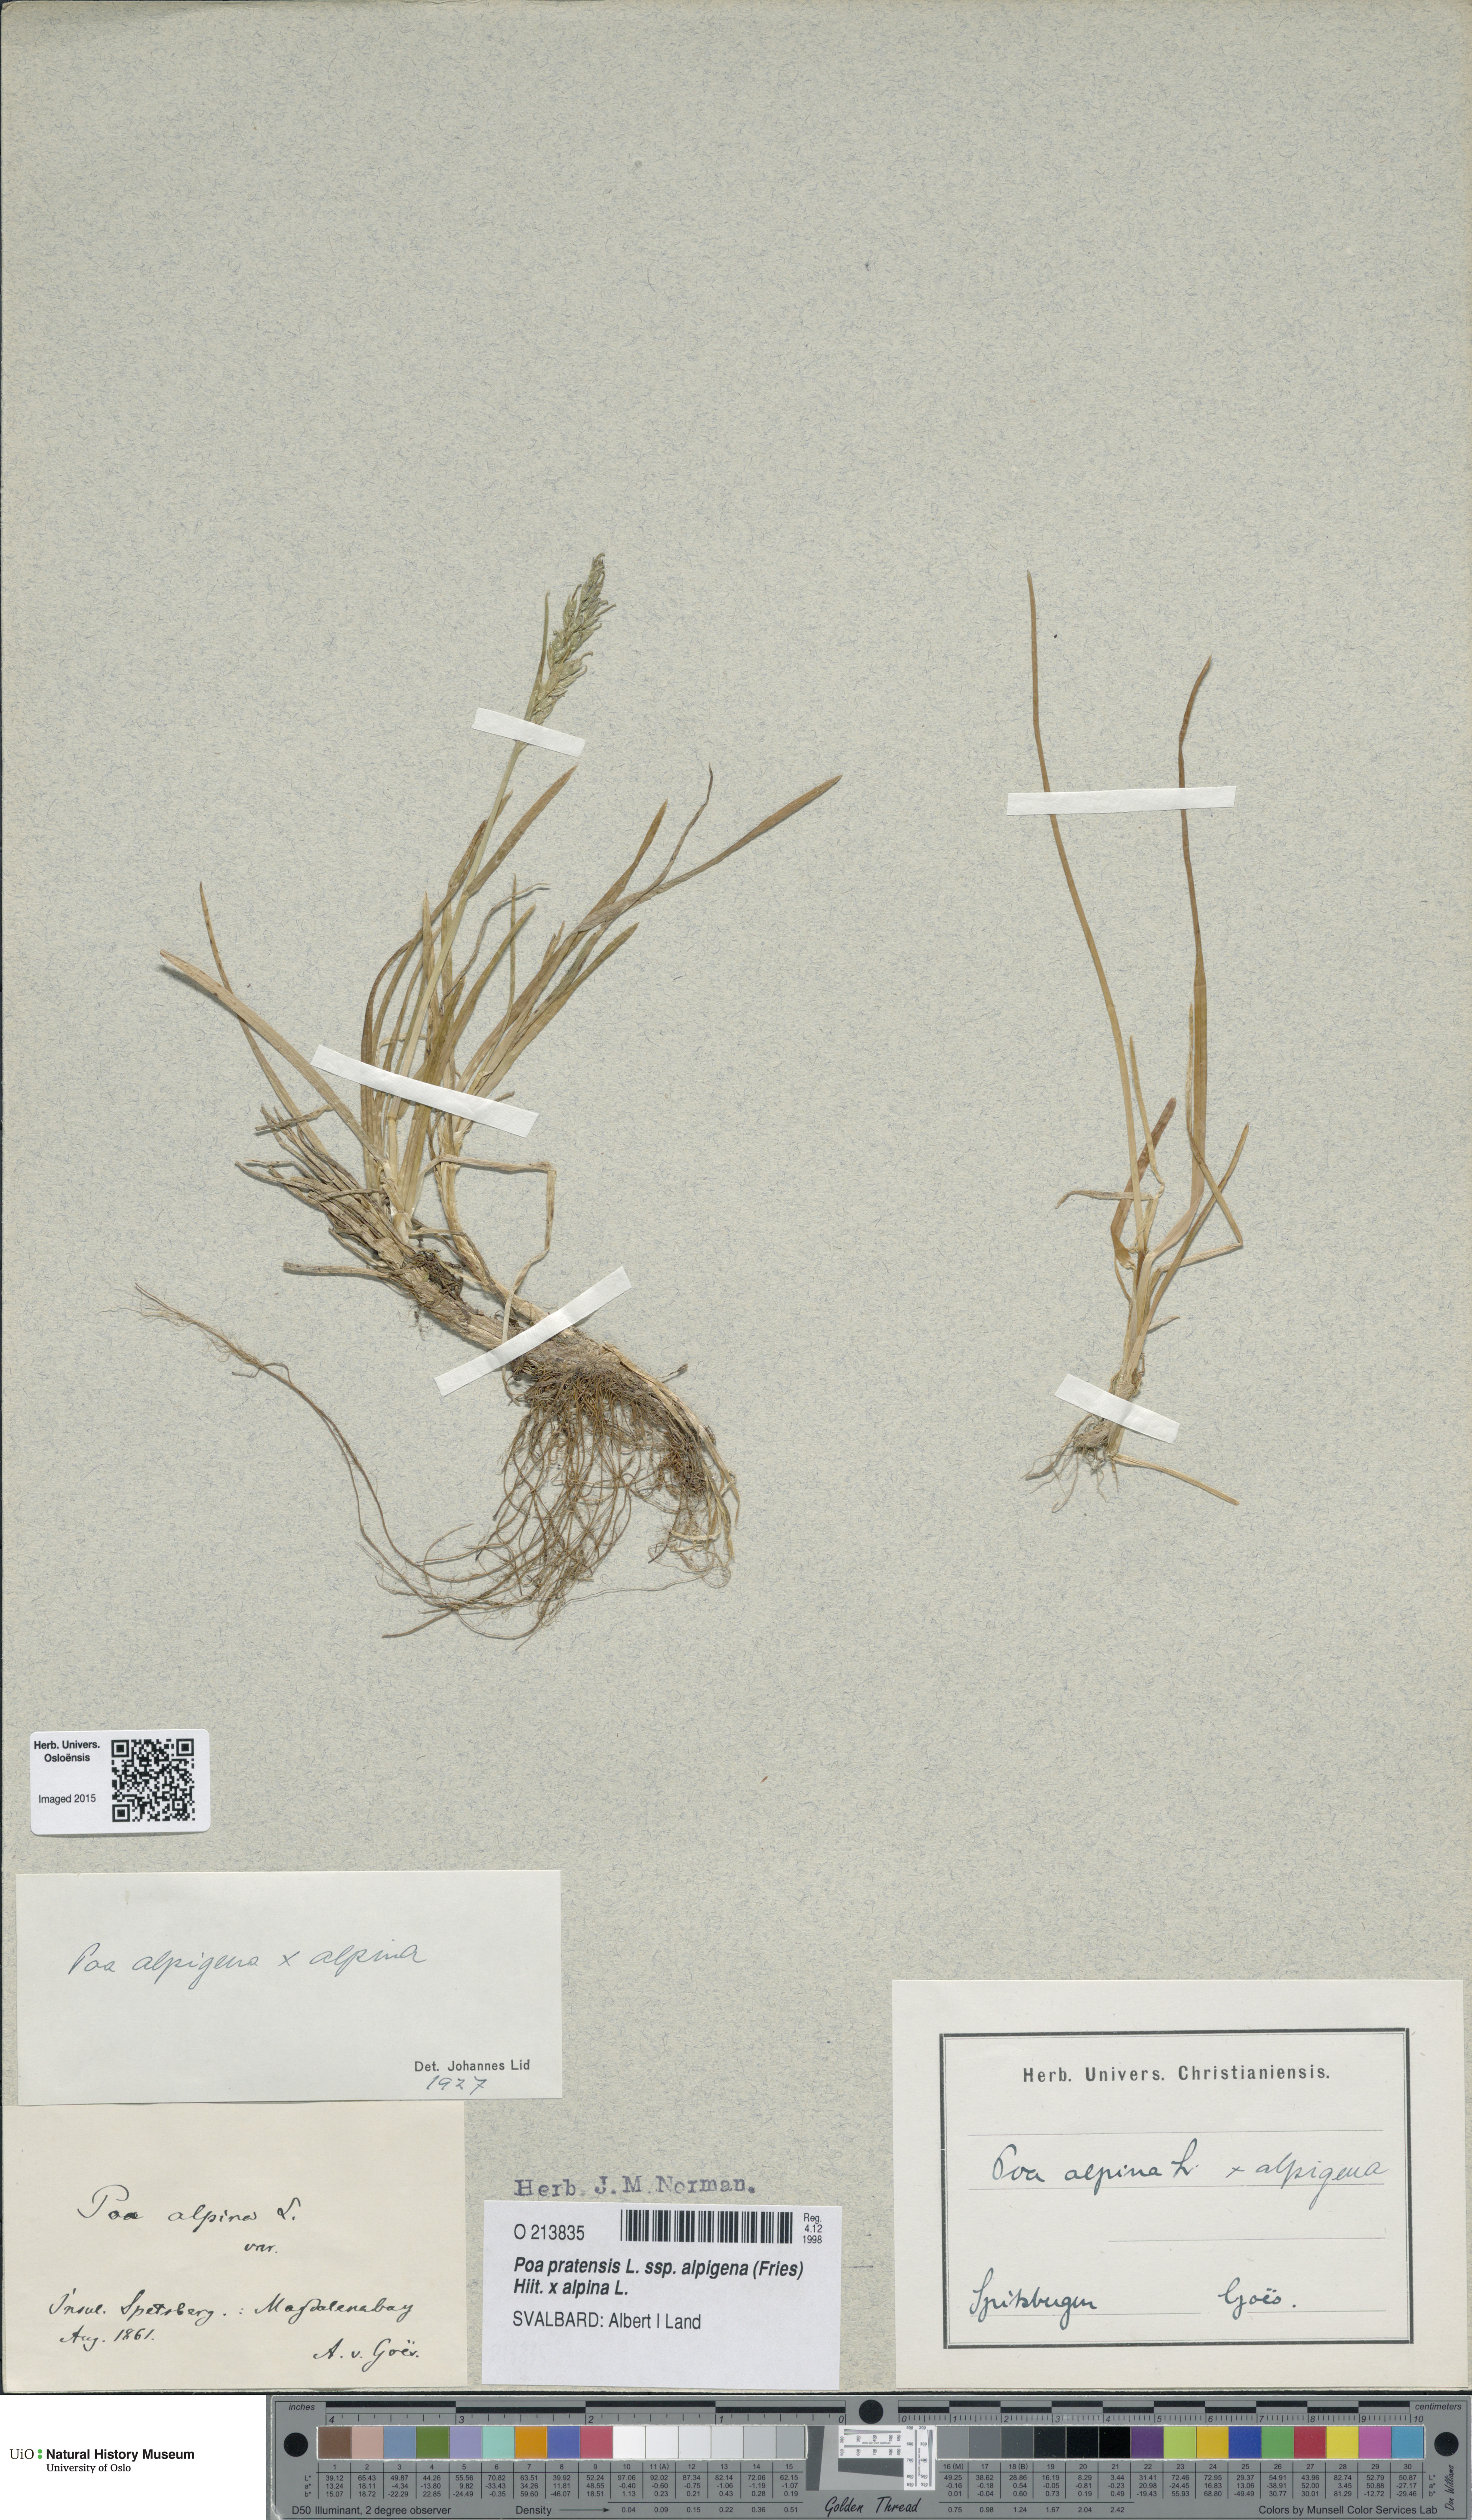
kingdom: Plantae
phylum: Tracheophyta
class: Liliopsida
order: Poales
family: Poaceae
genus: Poa
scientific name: Poa
